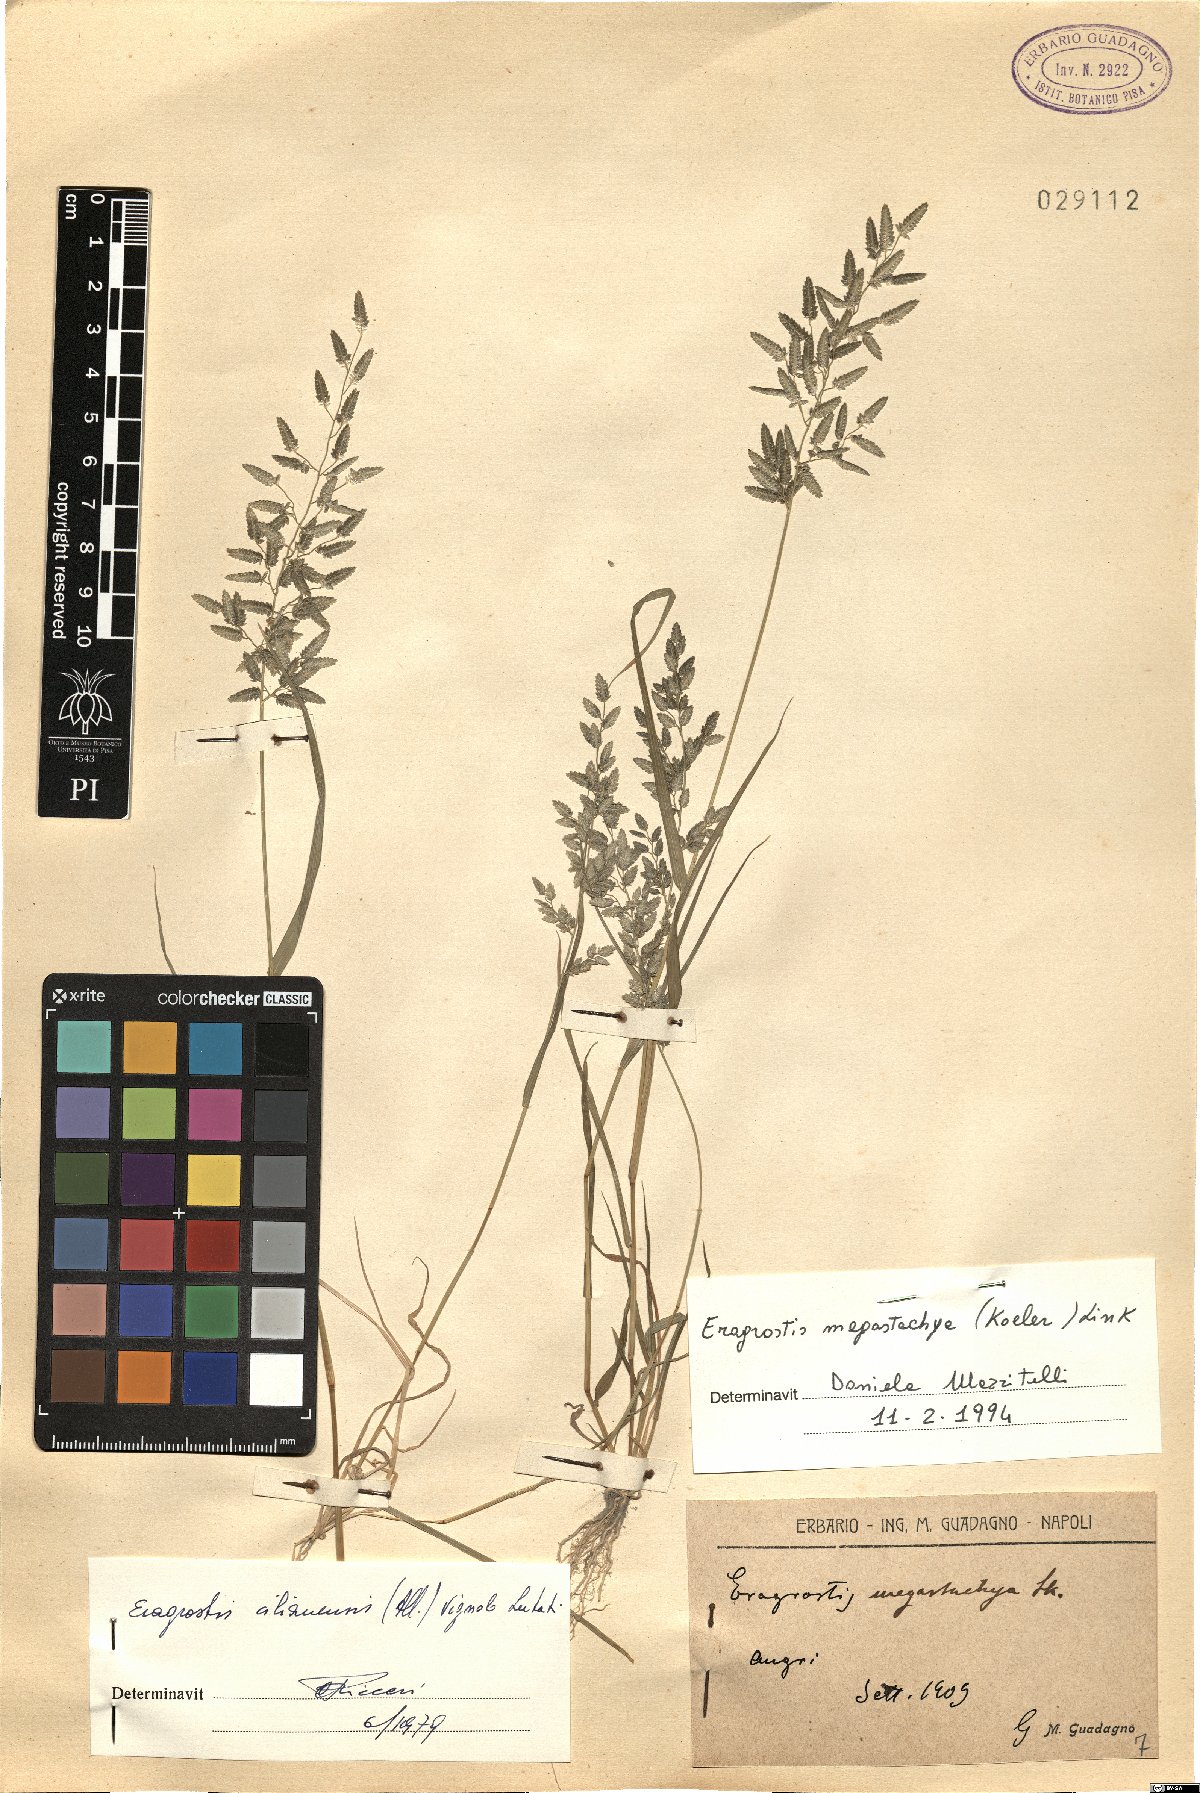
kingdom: Plantae
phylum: Tracheophyta
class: Liliopsida
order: Poales
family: Poaceae
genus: Eragrostis
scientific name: Eragrostis cilianensis
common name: Stinkgrass
